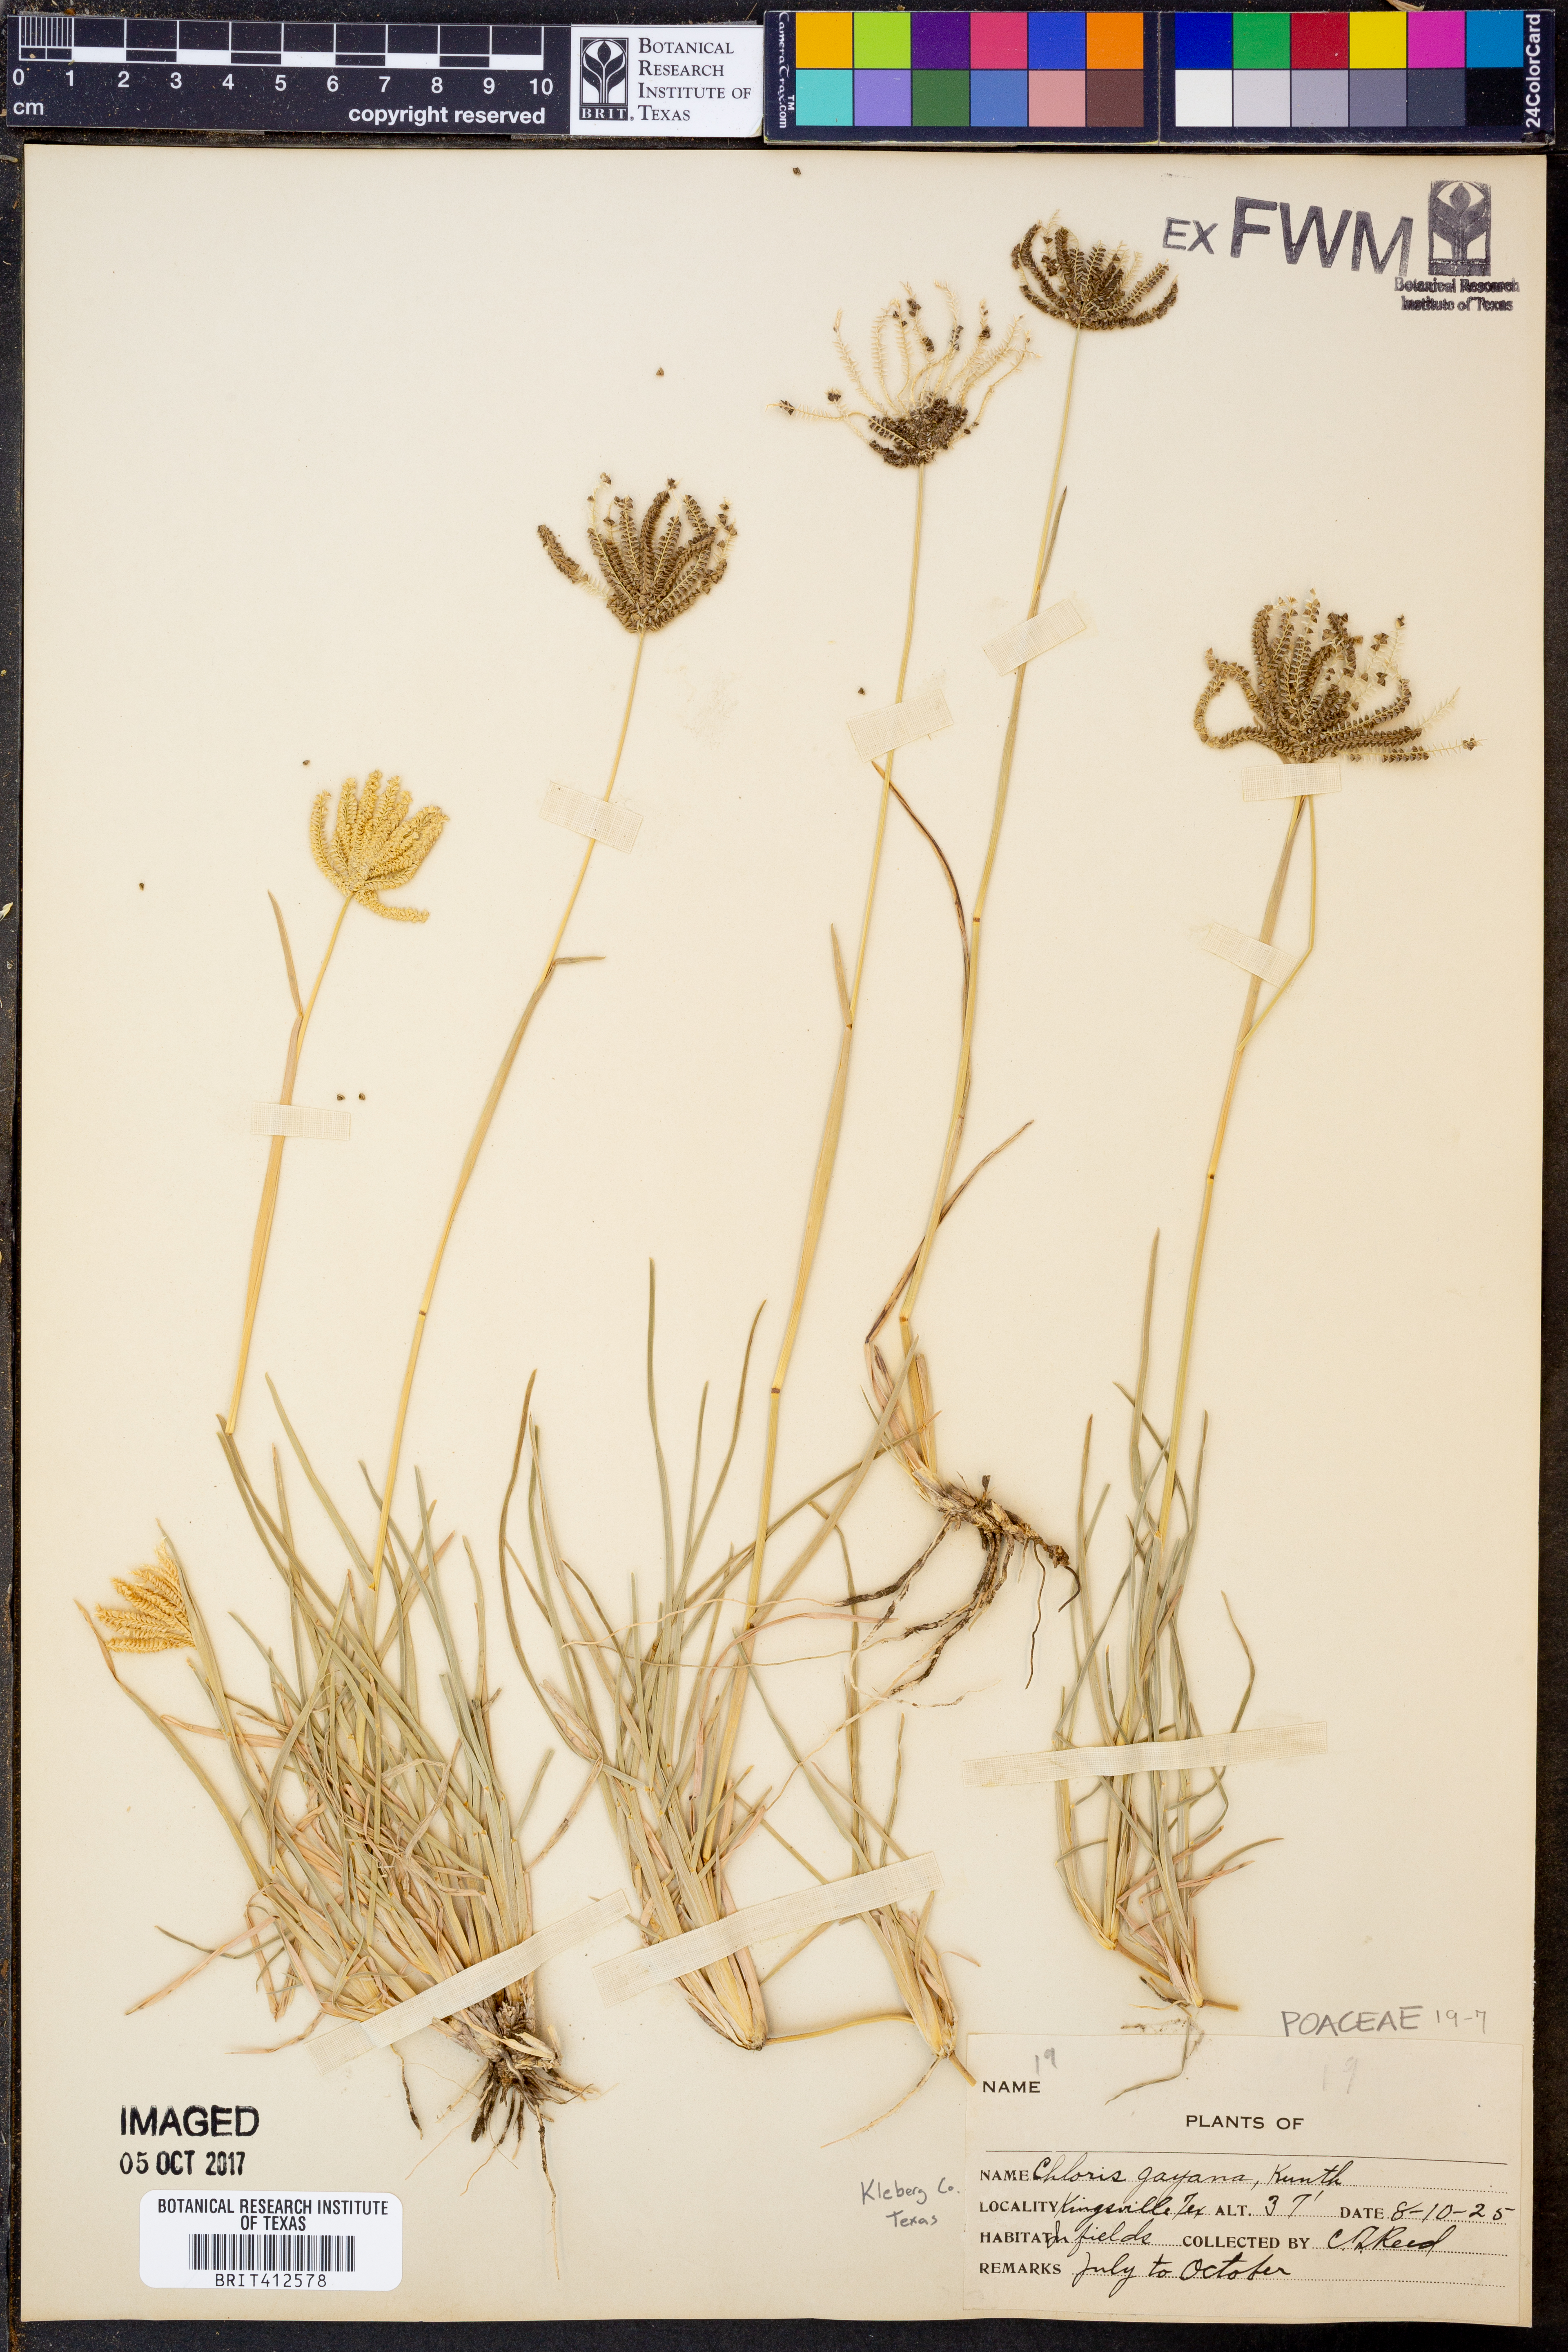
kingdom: Plantae
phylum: Tracheophyta
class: Liliopsida
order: Poales
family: Poaceae
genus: Chloris
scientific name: Chloris gayana
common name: Rhodes grass
